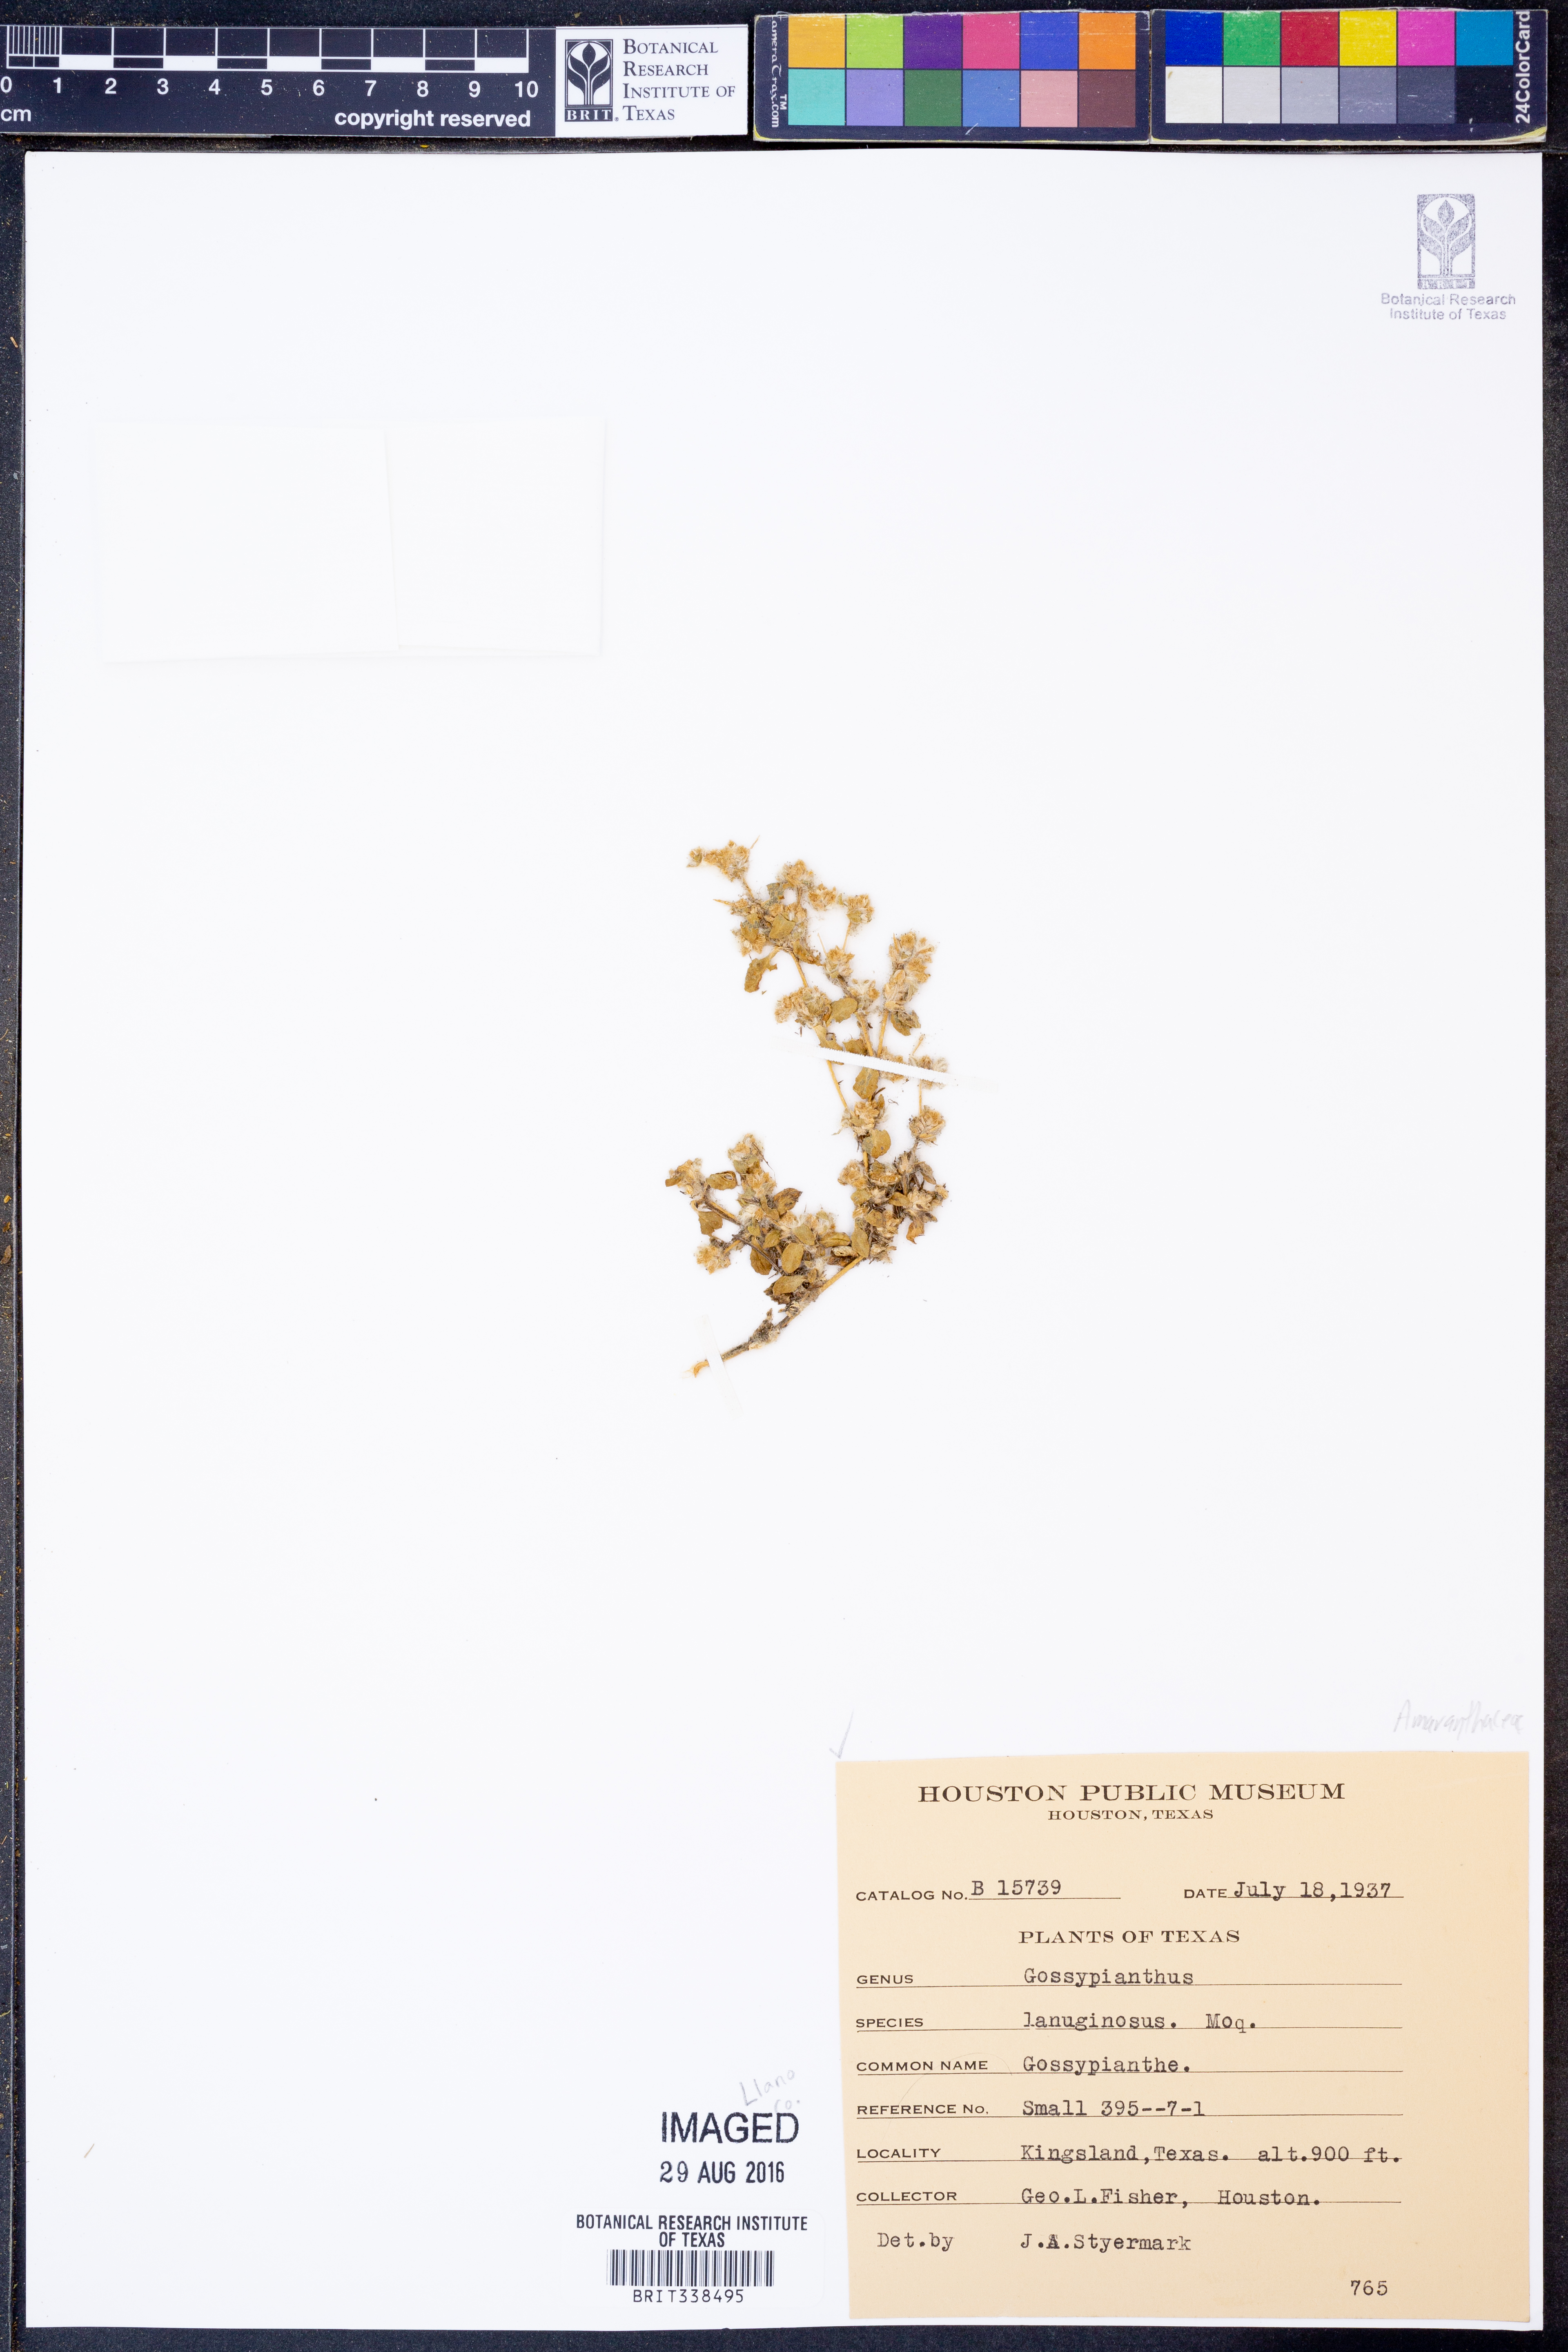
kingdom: Plantae
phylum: Tracheophyta
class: Magnoliopsida
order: Caryophyllales
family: Amaranthaceae
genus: Gomphrena
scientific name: Gomphrena lanuparonychioides
